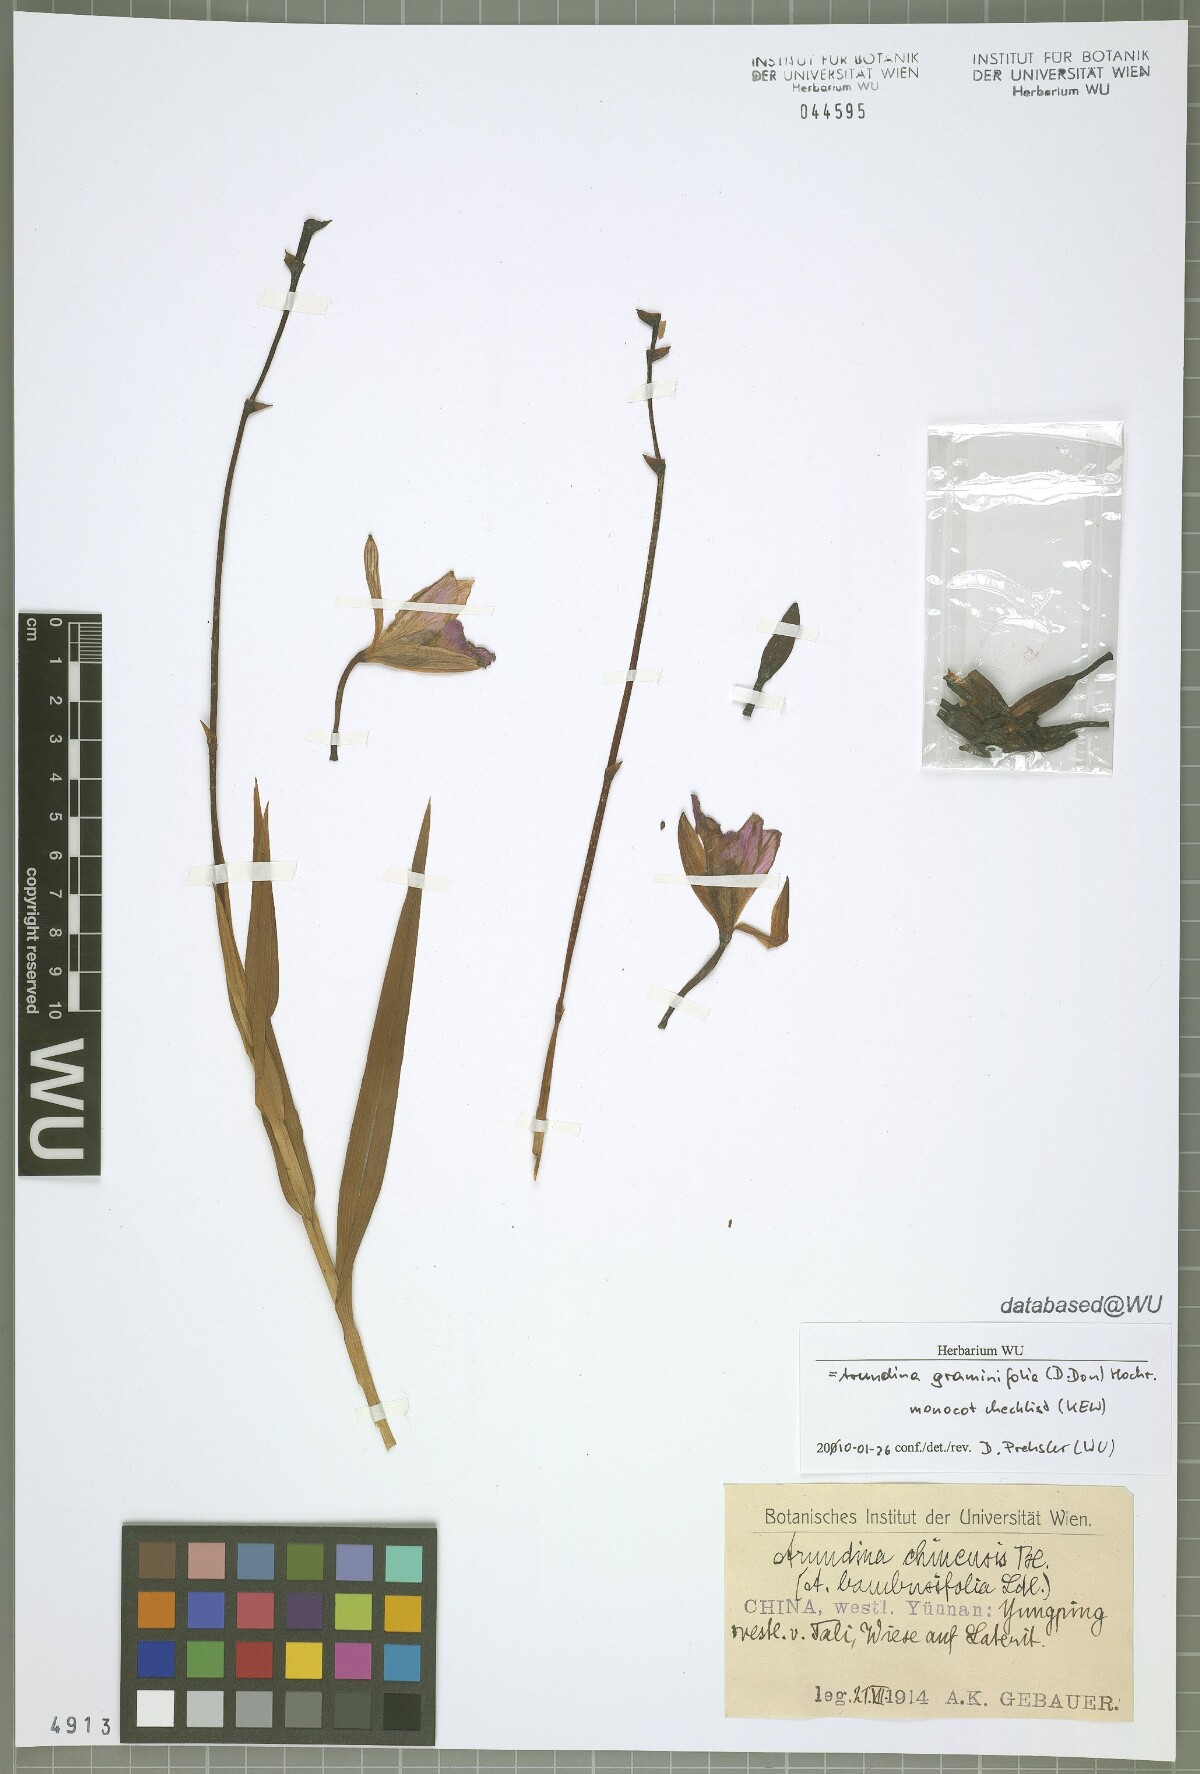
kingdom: Plantae
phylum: Tracheophyta
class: Liliopsida
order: Asparagales
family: Orchidaceae
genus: Arundina
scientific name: Arundina graminifolia
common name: Bamboo orchid
